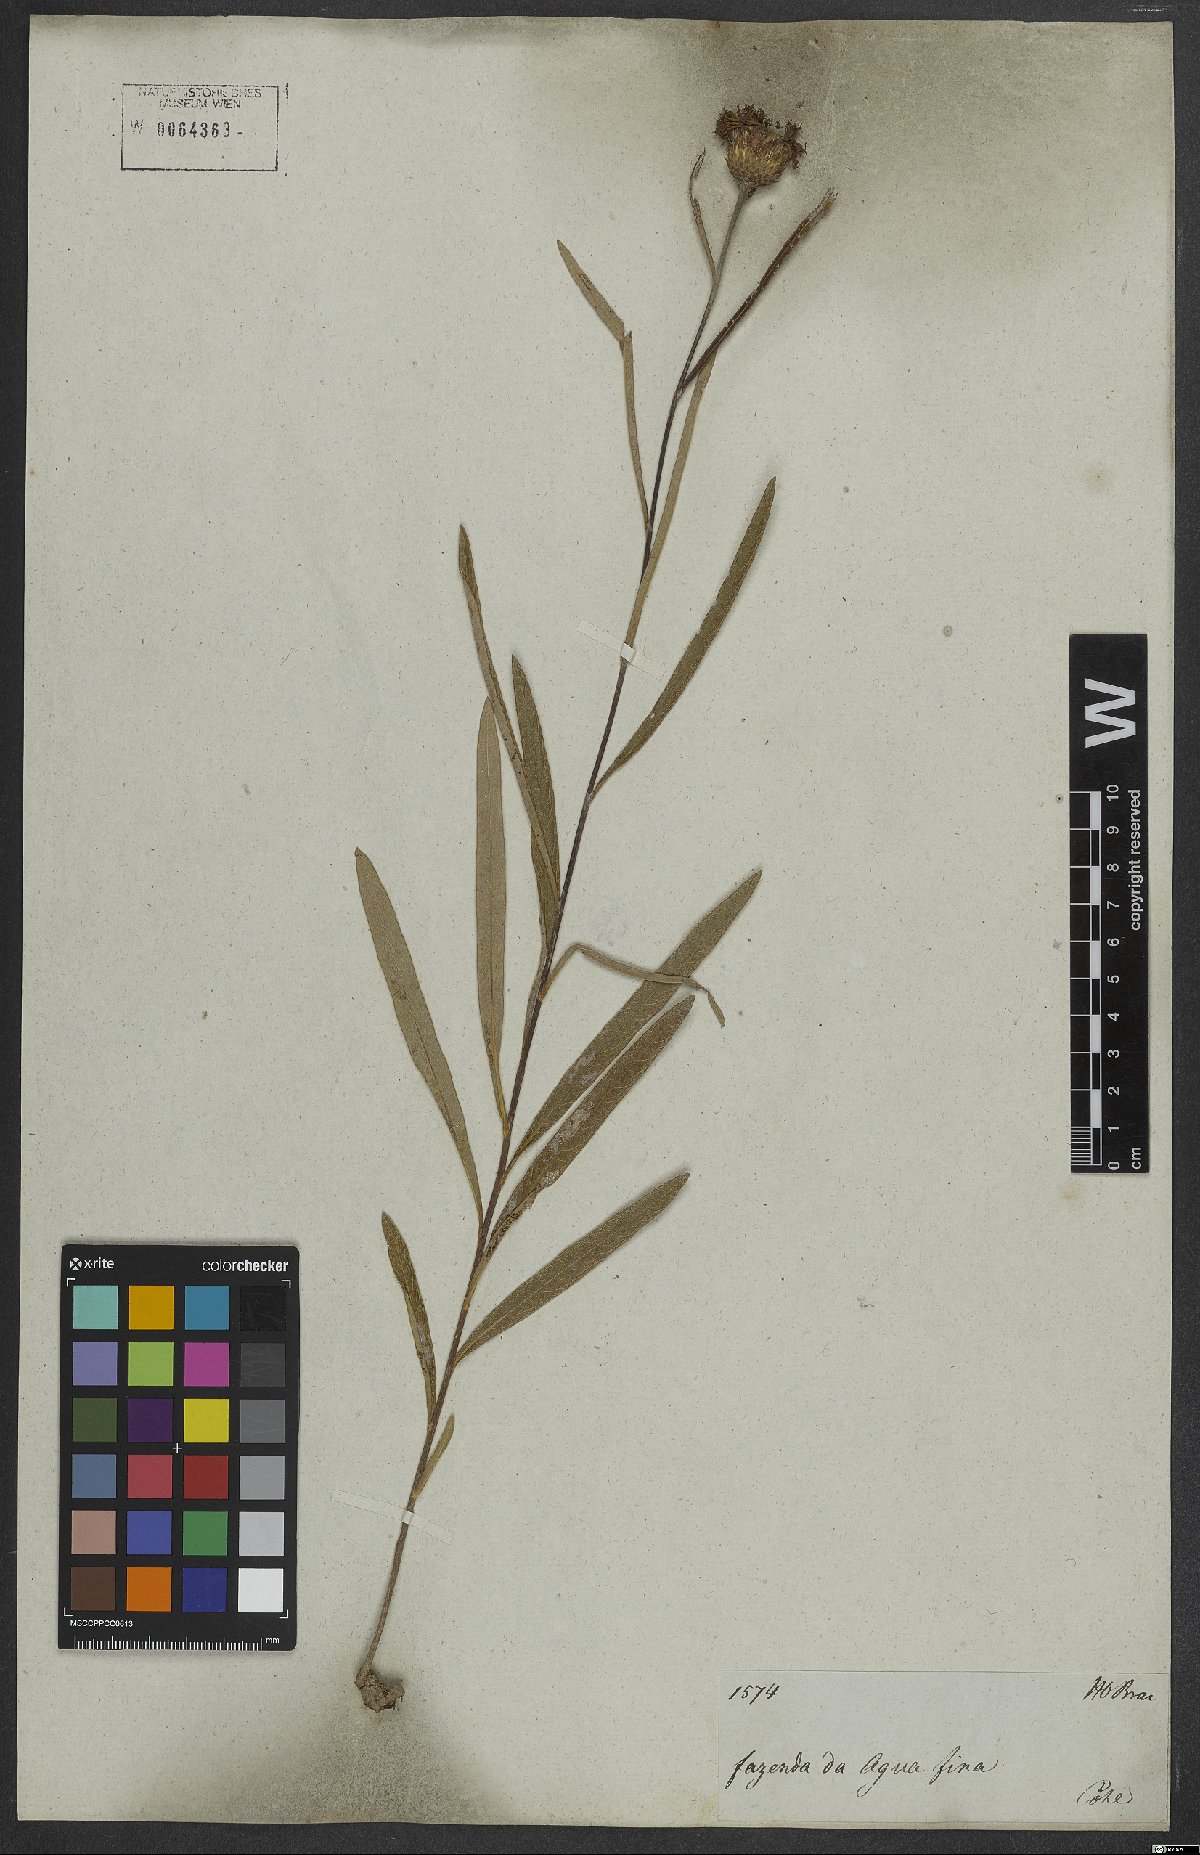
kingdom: Plantae
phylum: Tracheophyta
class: Magnoliopsida
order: Asterales
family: Asteraceae
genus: Lessingianthus
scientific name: Lessingianthus coriaceus
